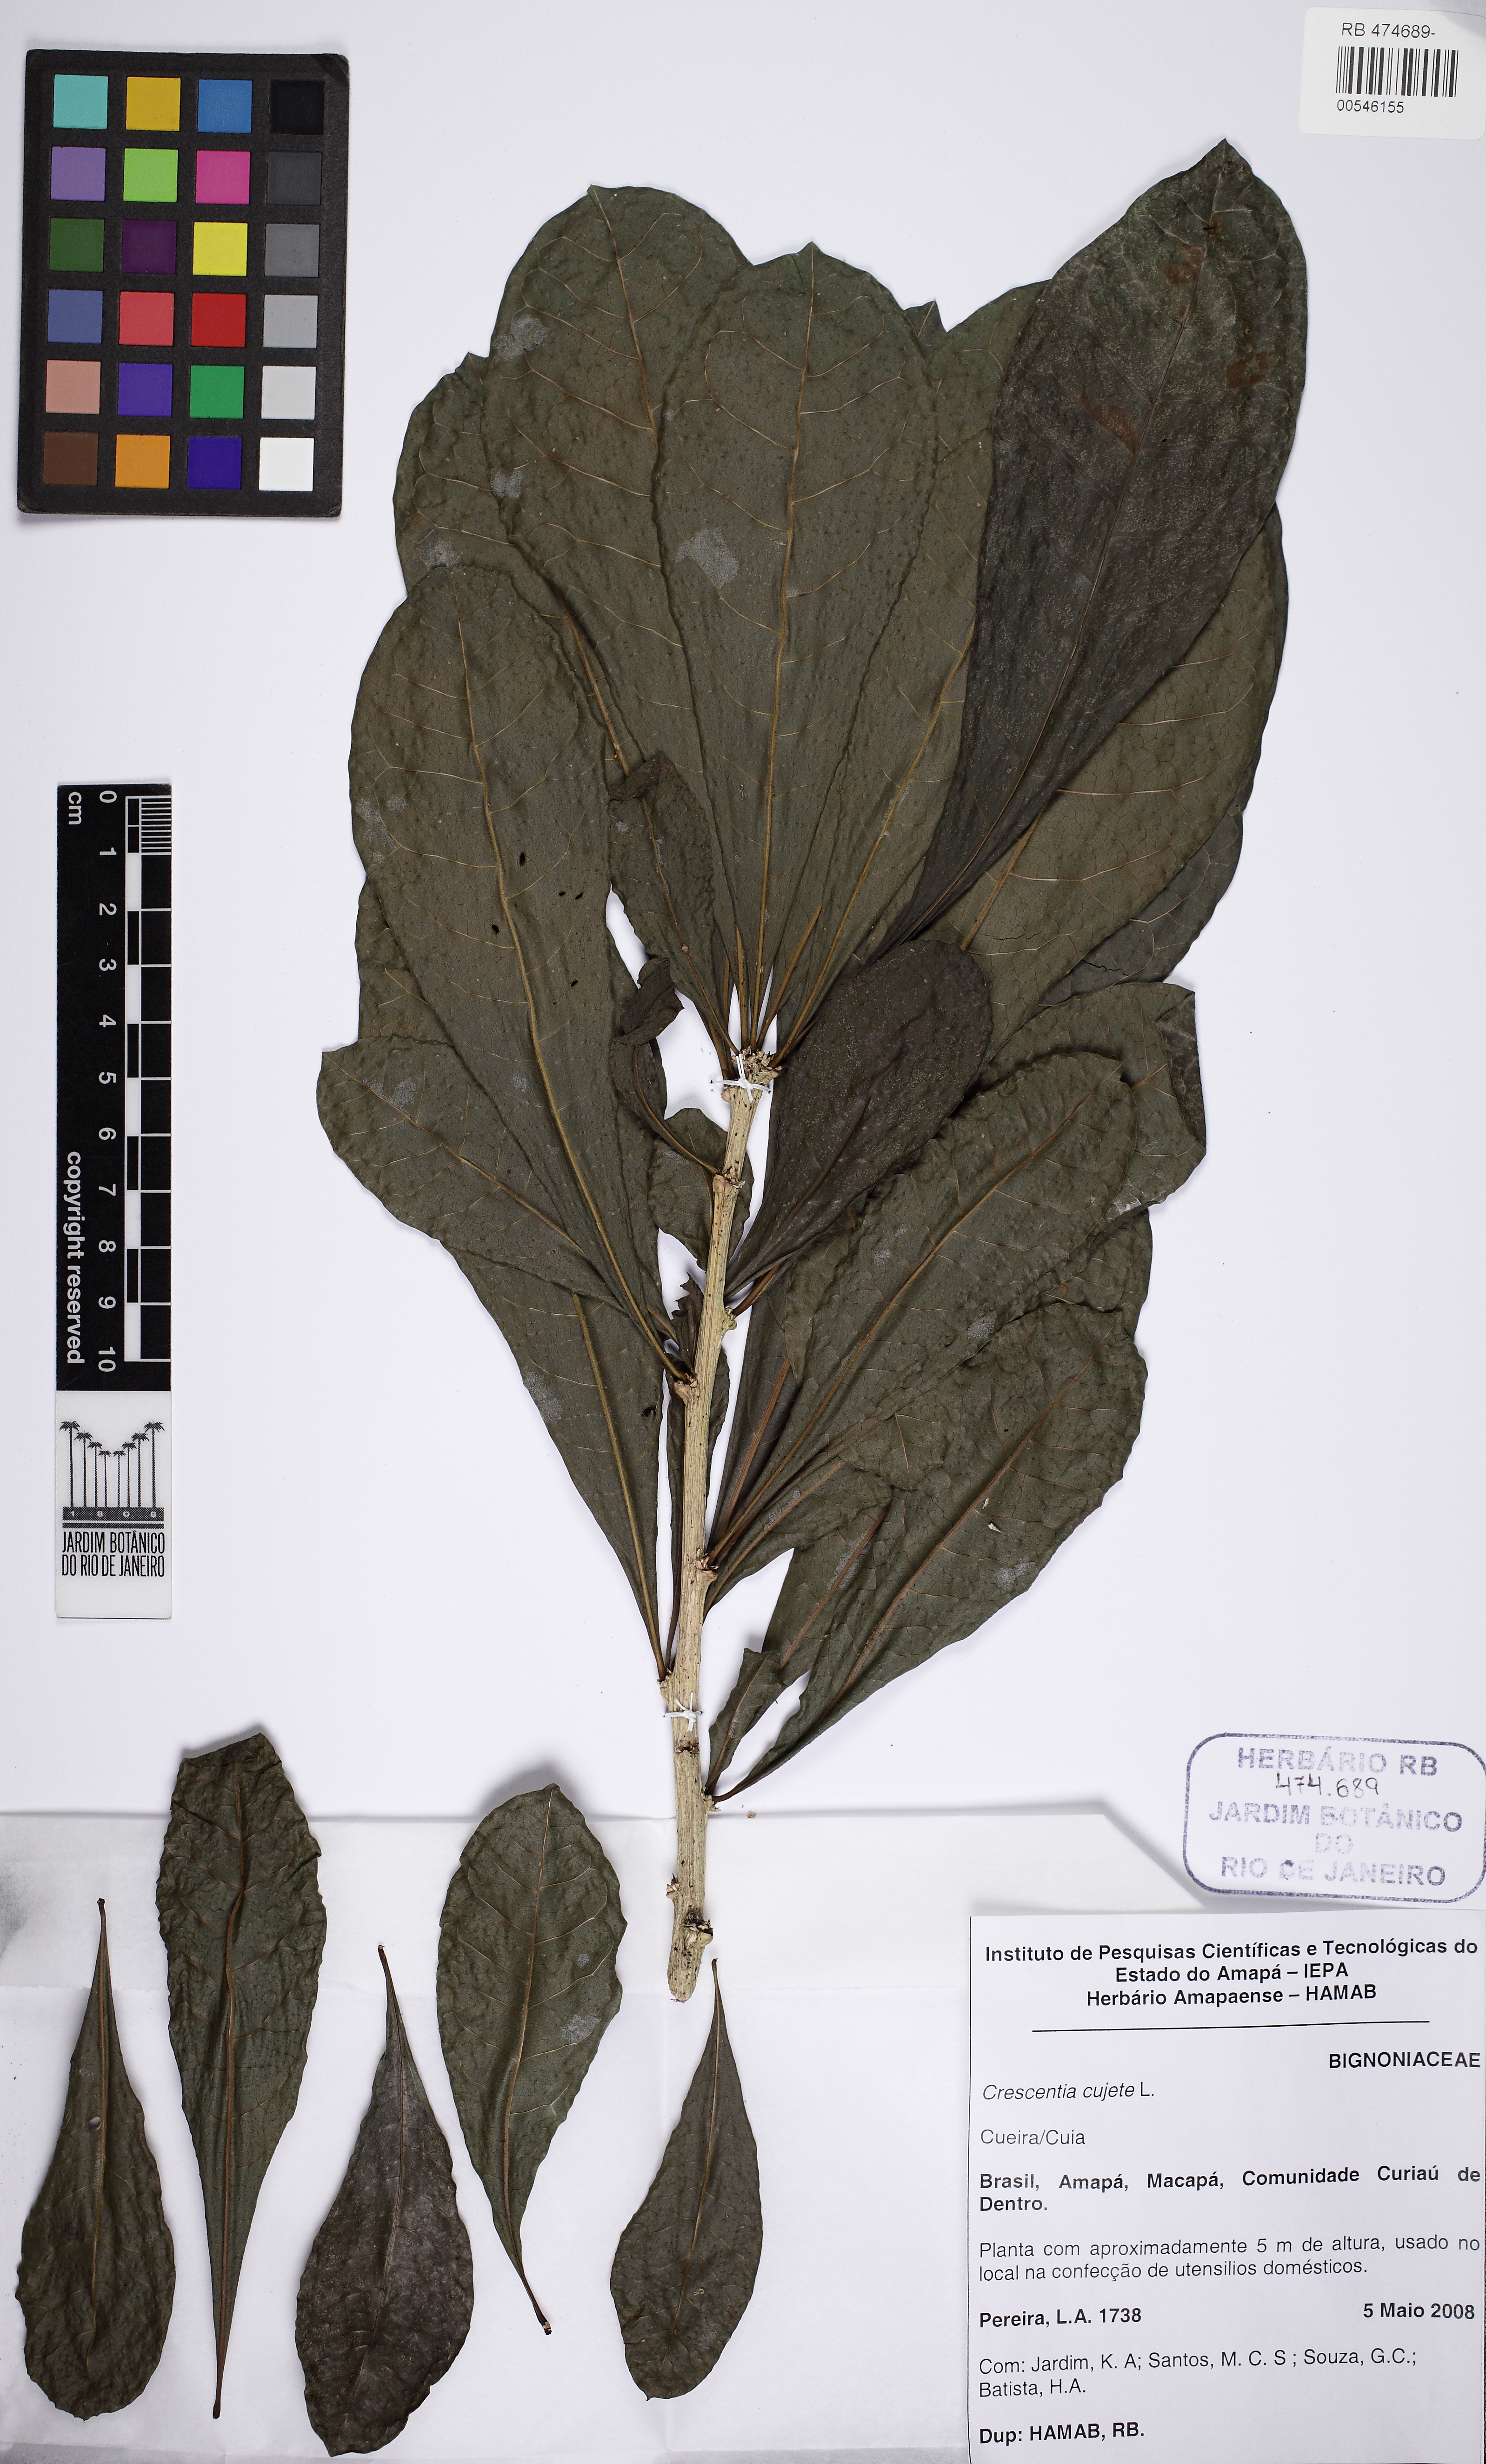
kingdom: Plantae
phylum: Tracheophyta
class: Magnoliopsida
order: Lamiales
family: Bignoniaceae
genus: Crescentia
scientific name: Crescentia cujete
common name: Calabash
